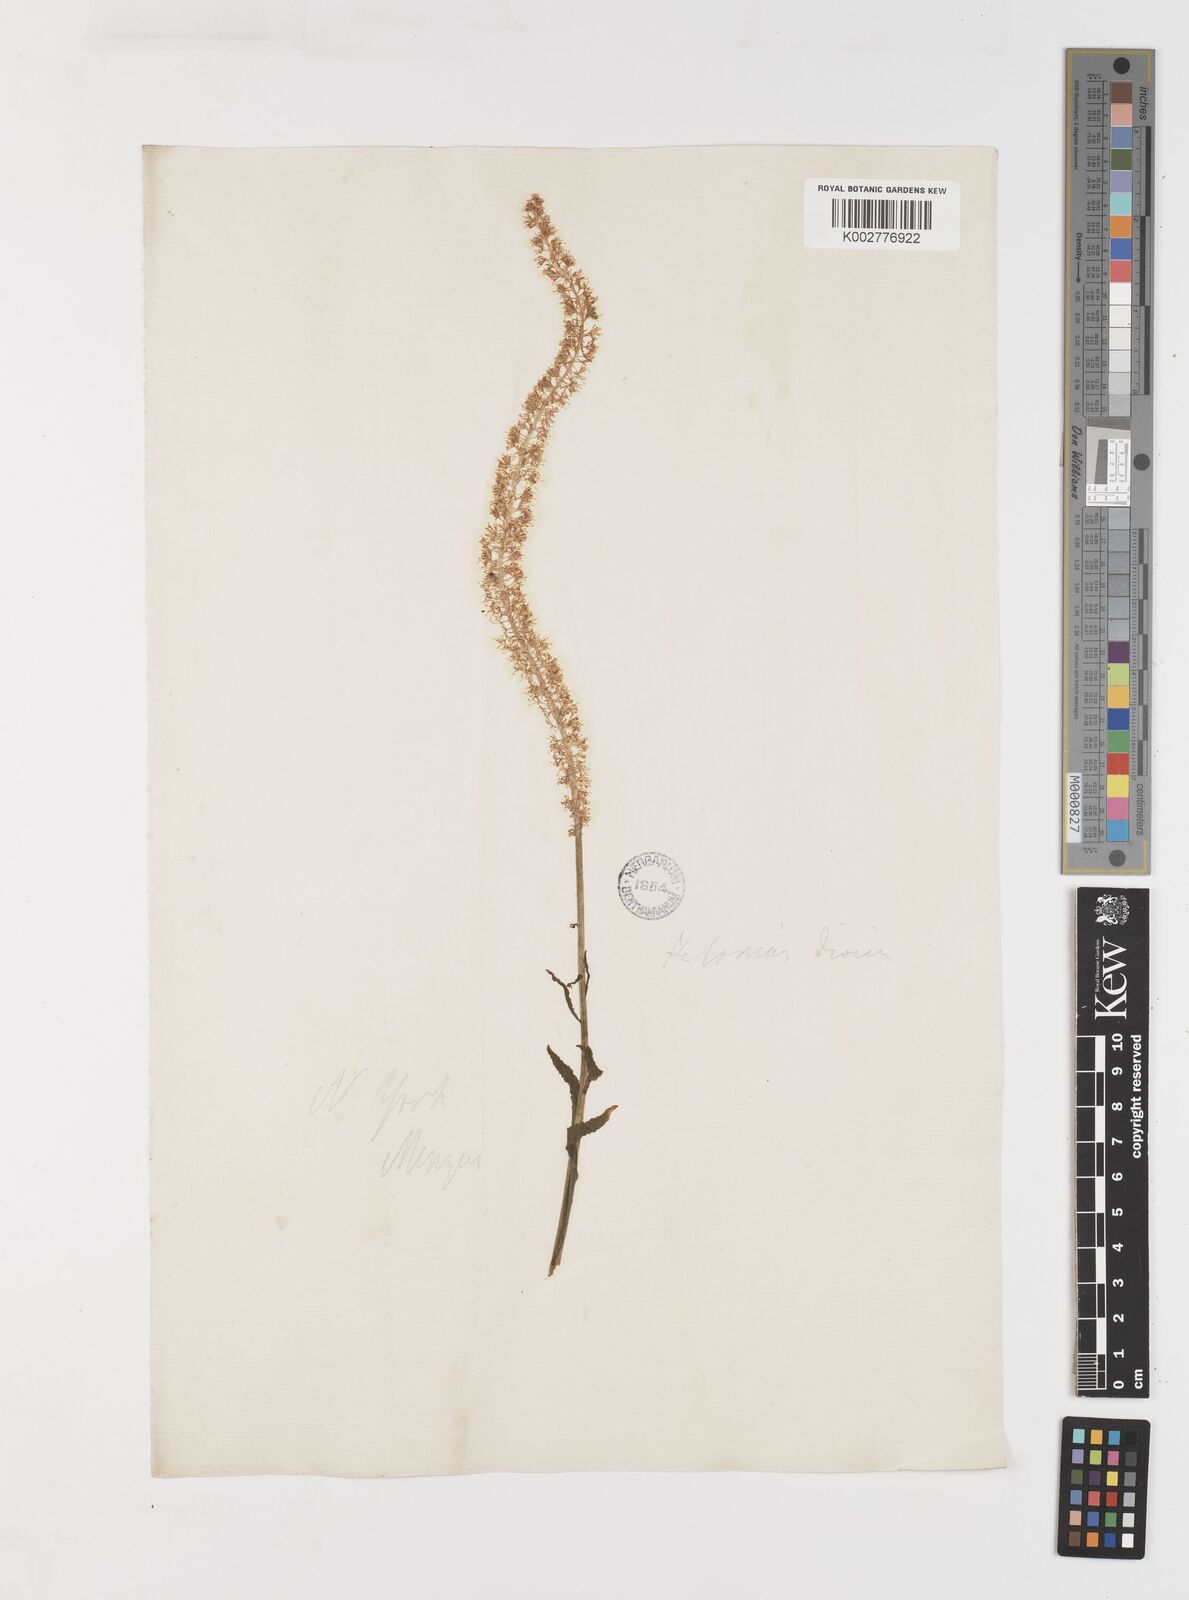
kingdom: Plantae
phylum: Tracheophyta
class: Liliopsida
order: Liliales
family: Melanthiaceae
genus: Chamaelirium
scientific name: Chamaelirium luteum
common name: Fairy-wand
